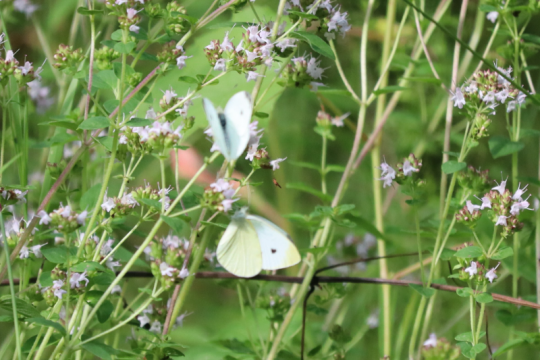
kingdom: Animalia
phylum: Arthropoda
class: Insecta
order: Lepidoptera
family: Pieridae
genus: Pieris
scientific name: Pieris rapae
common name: Cabbage White
